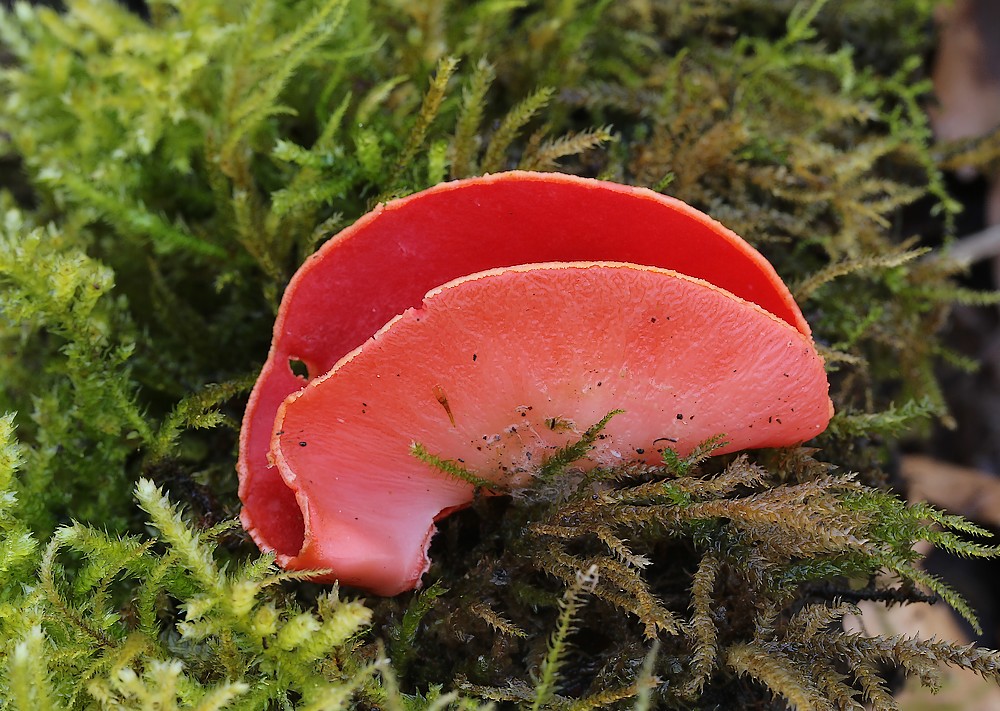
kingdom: Fungi
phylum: Ascomycota
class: Pezizomycetes
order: Pezizales
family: Sarcoscyphaceae
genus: Sarcoscypha
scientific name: Sarcoscypha coccinea
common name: skarlagen-pragtbæger
